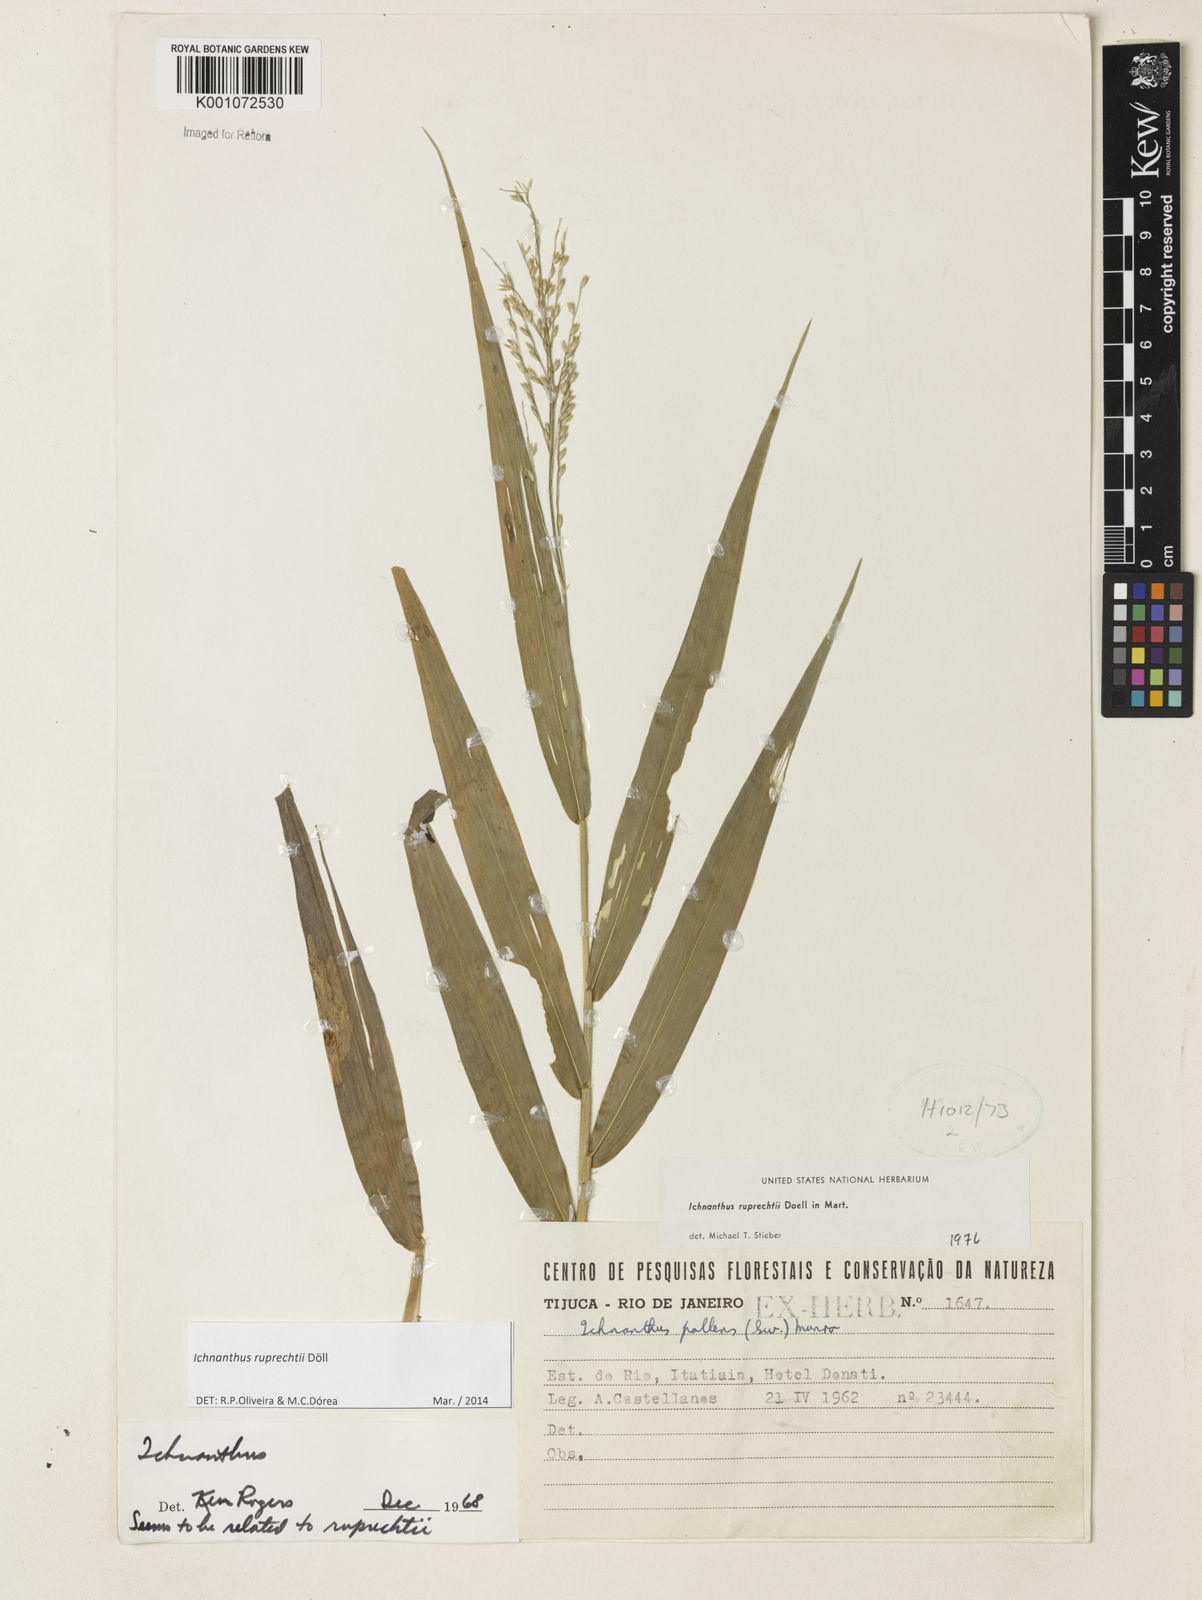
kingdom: Plantae
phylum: Tracheophyta
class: Liliopsida
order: Poales
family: Poaceae
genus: Ichnanthus
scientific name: Ichnanthus
